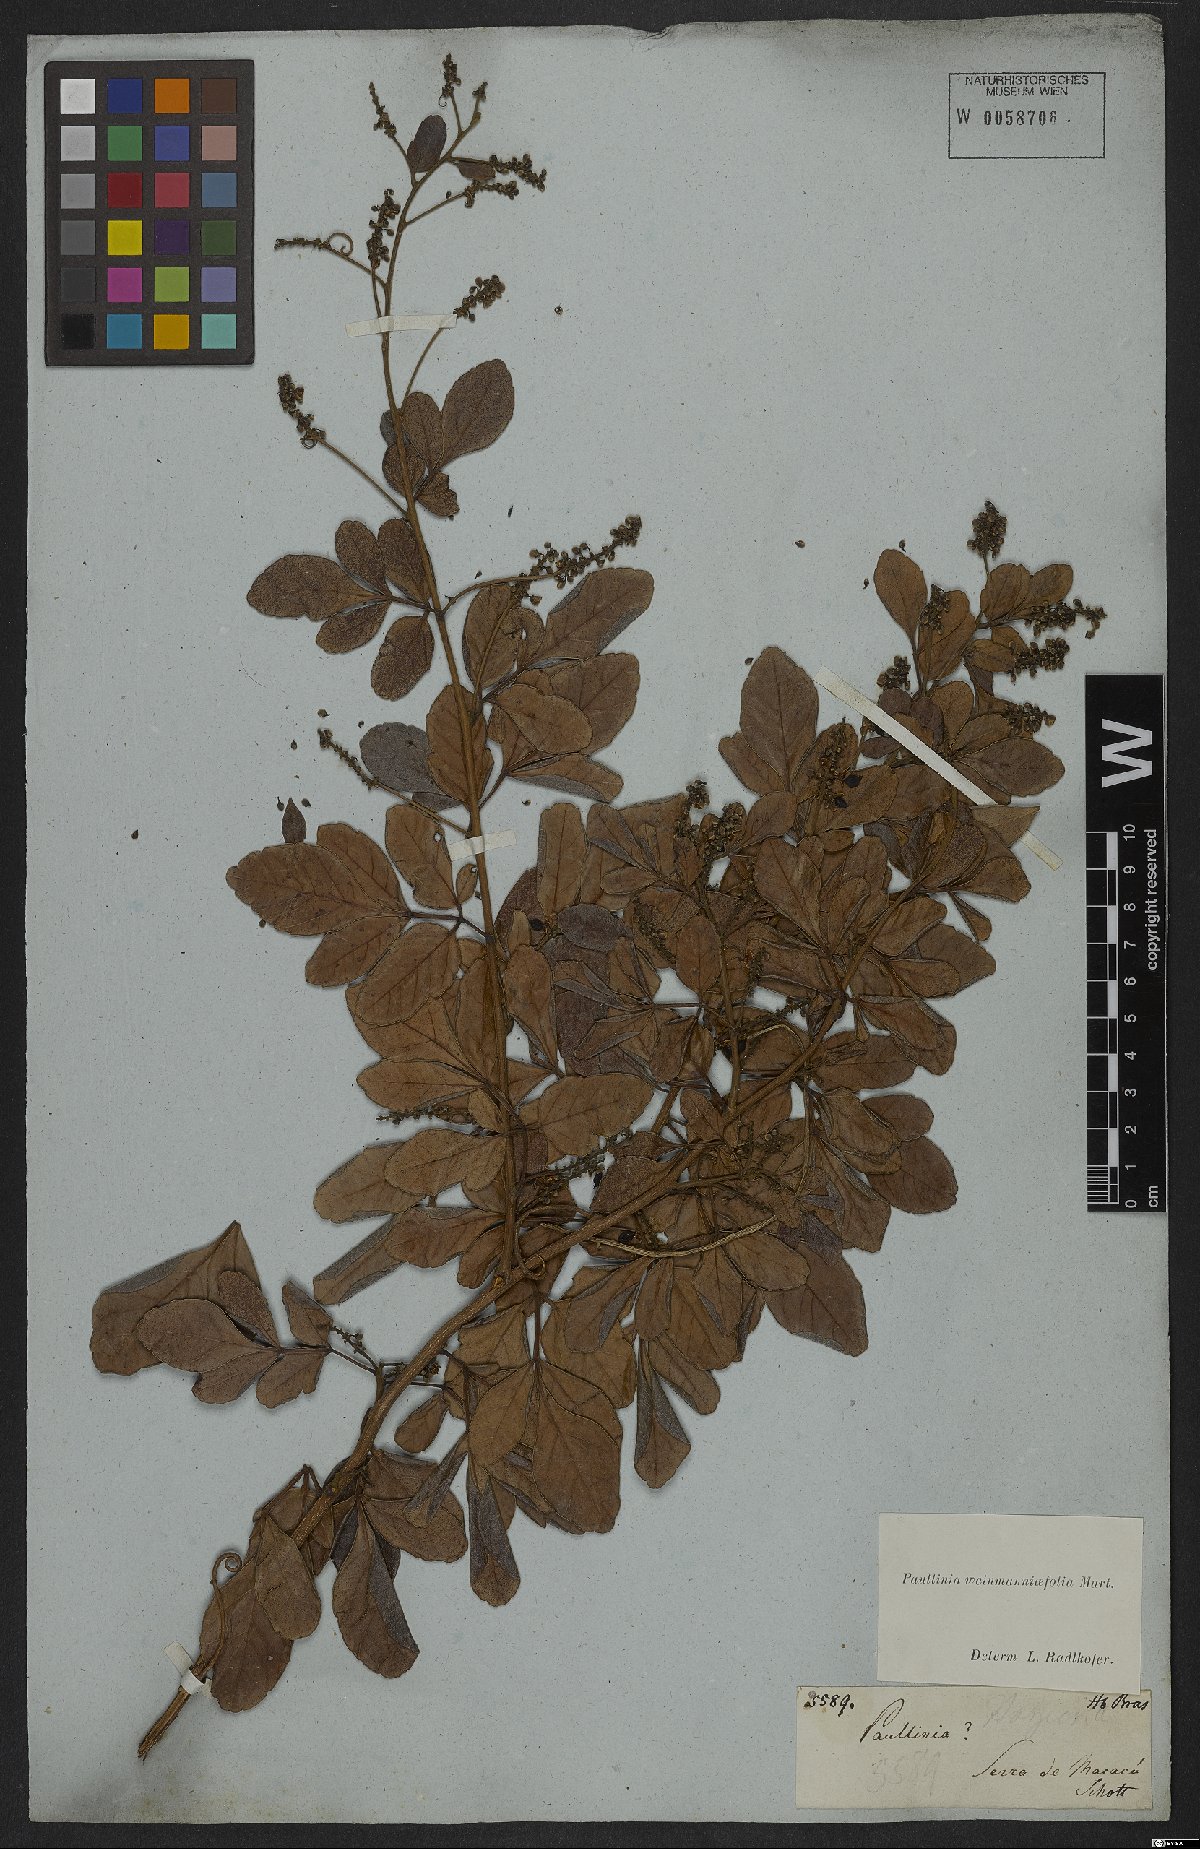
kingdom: Plantae
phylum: Tracheophyta
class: Magnoliopsida
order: Sapindales
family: Sapindaceae
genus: Paullinia
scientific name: Paullinia weinmanniifolia
